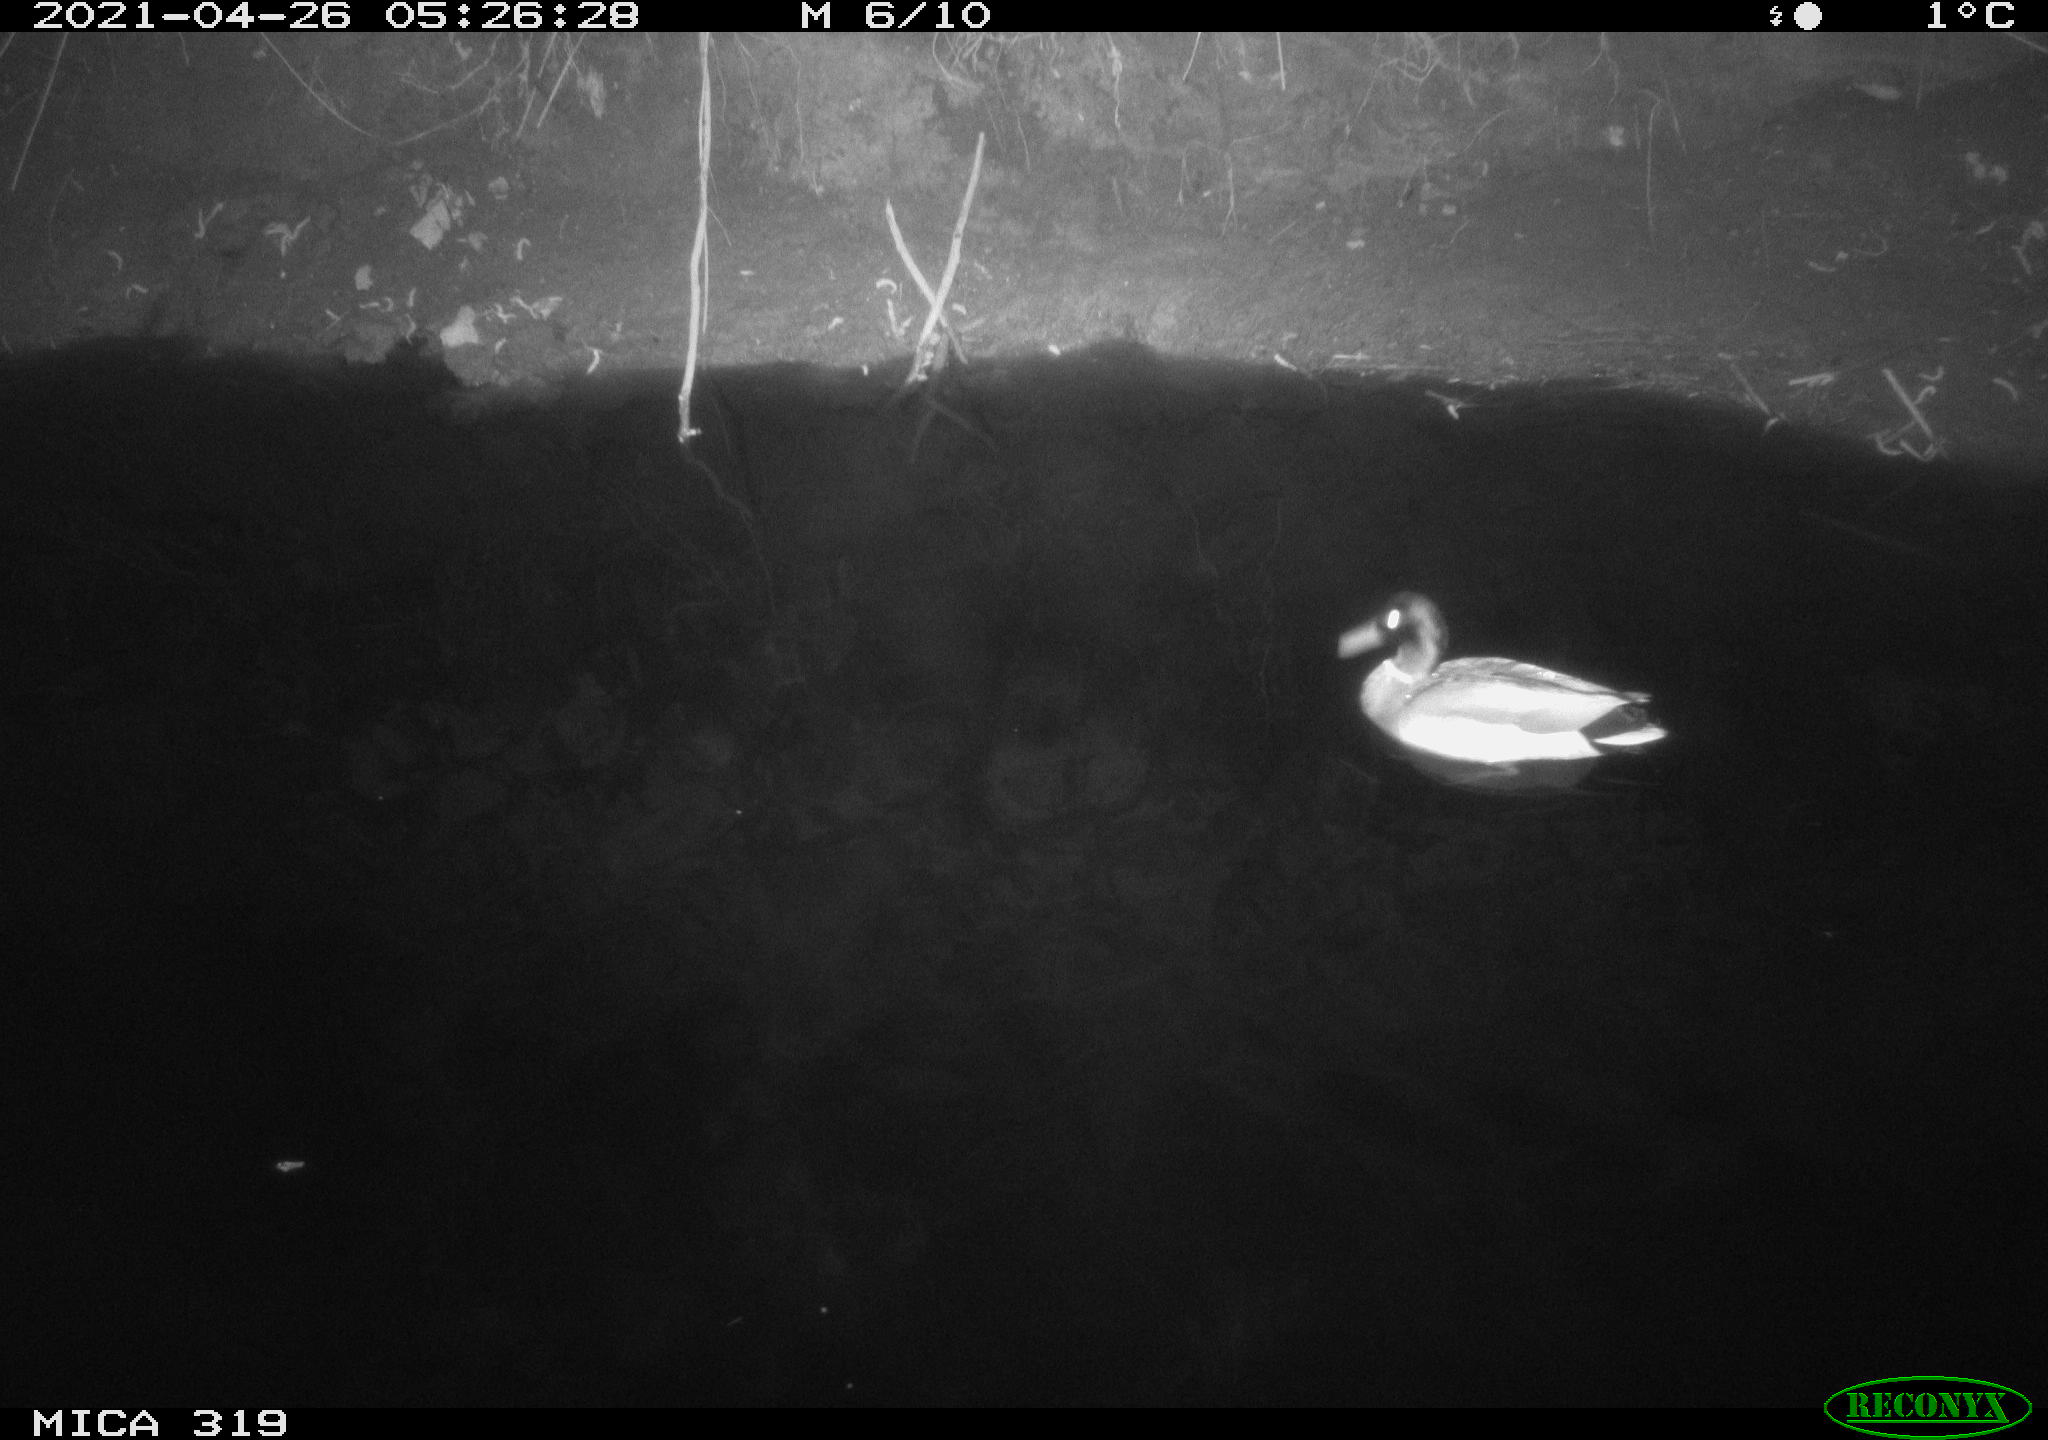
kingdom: Animalia
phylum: Chordata
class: Aves
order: Anseriformes
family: Anatidae
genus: Anas
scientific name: Anas platyrhynchos
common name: Mallard
